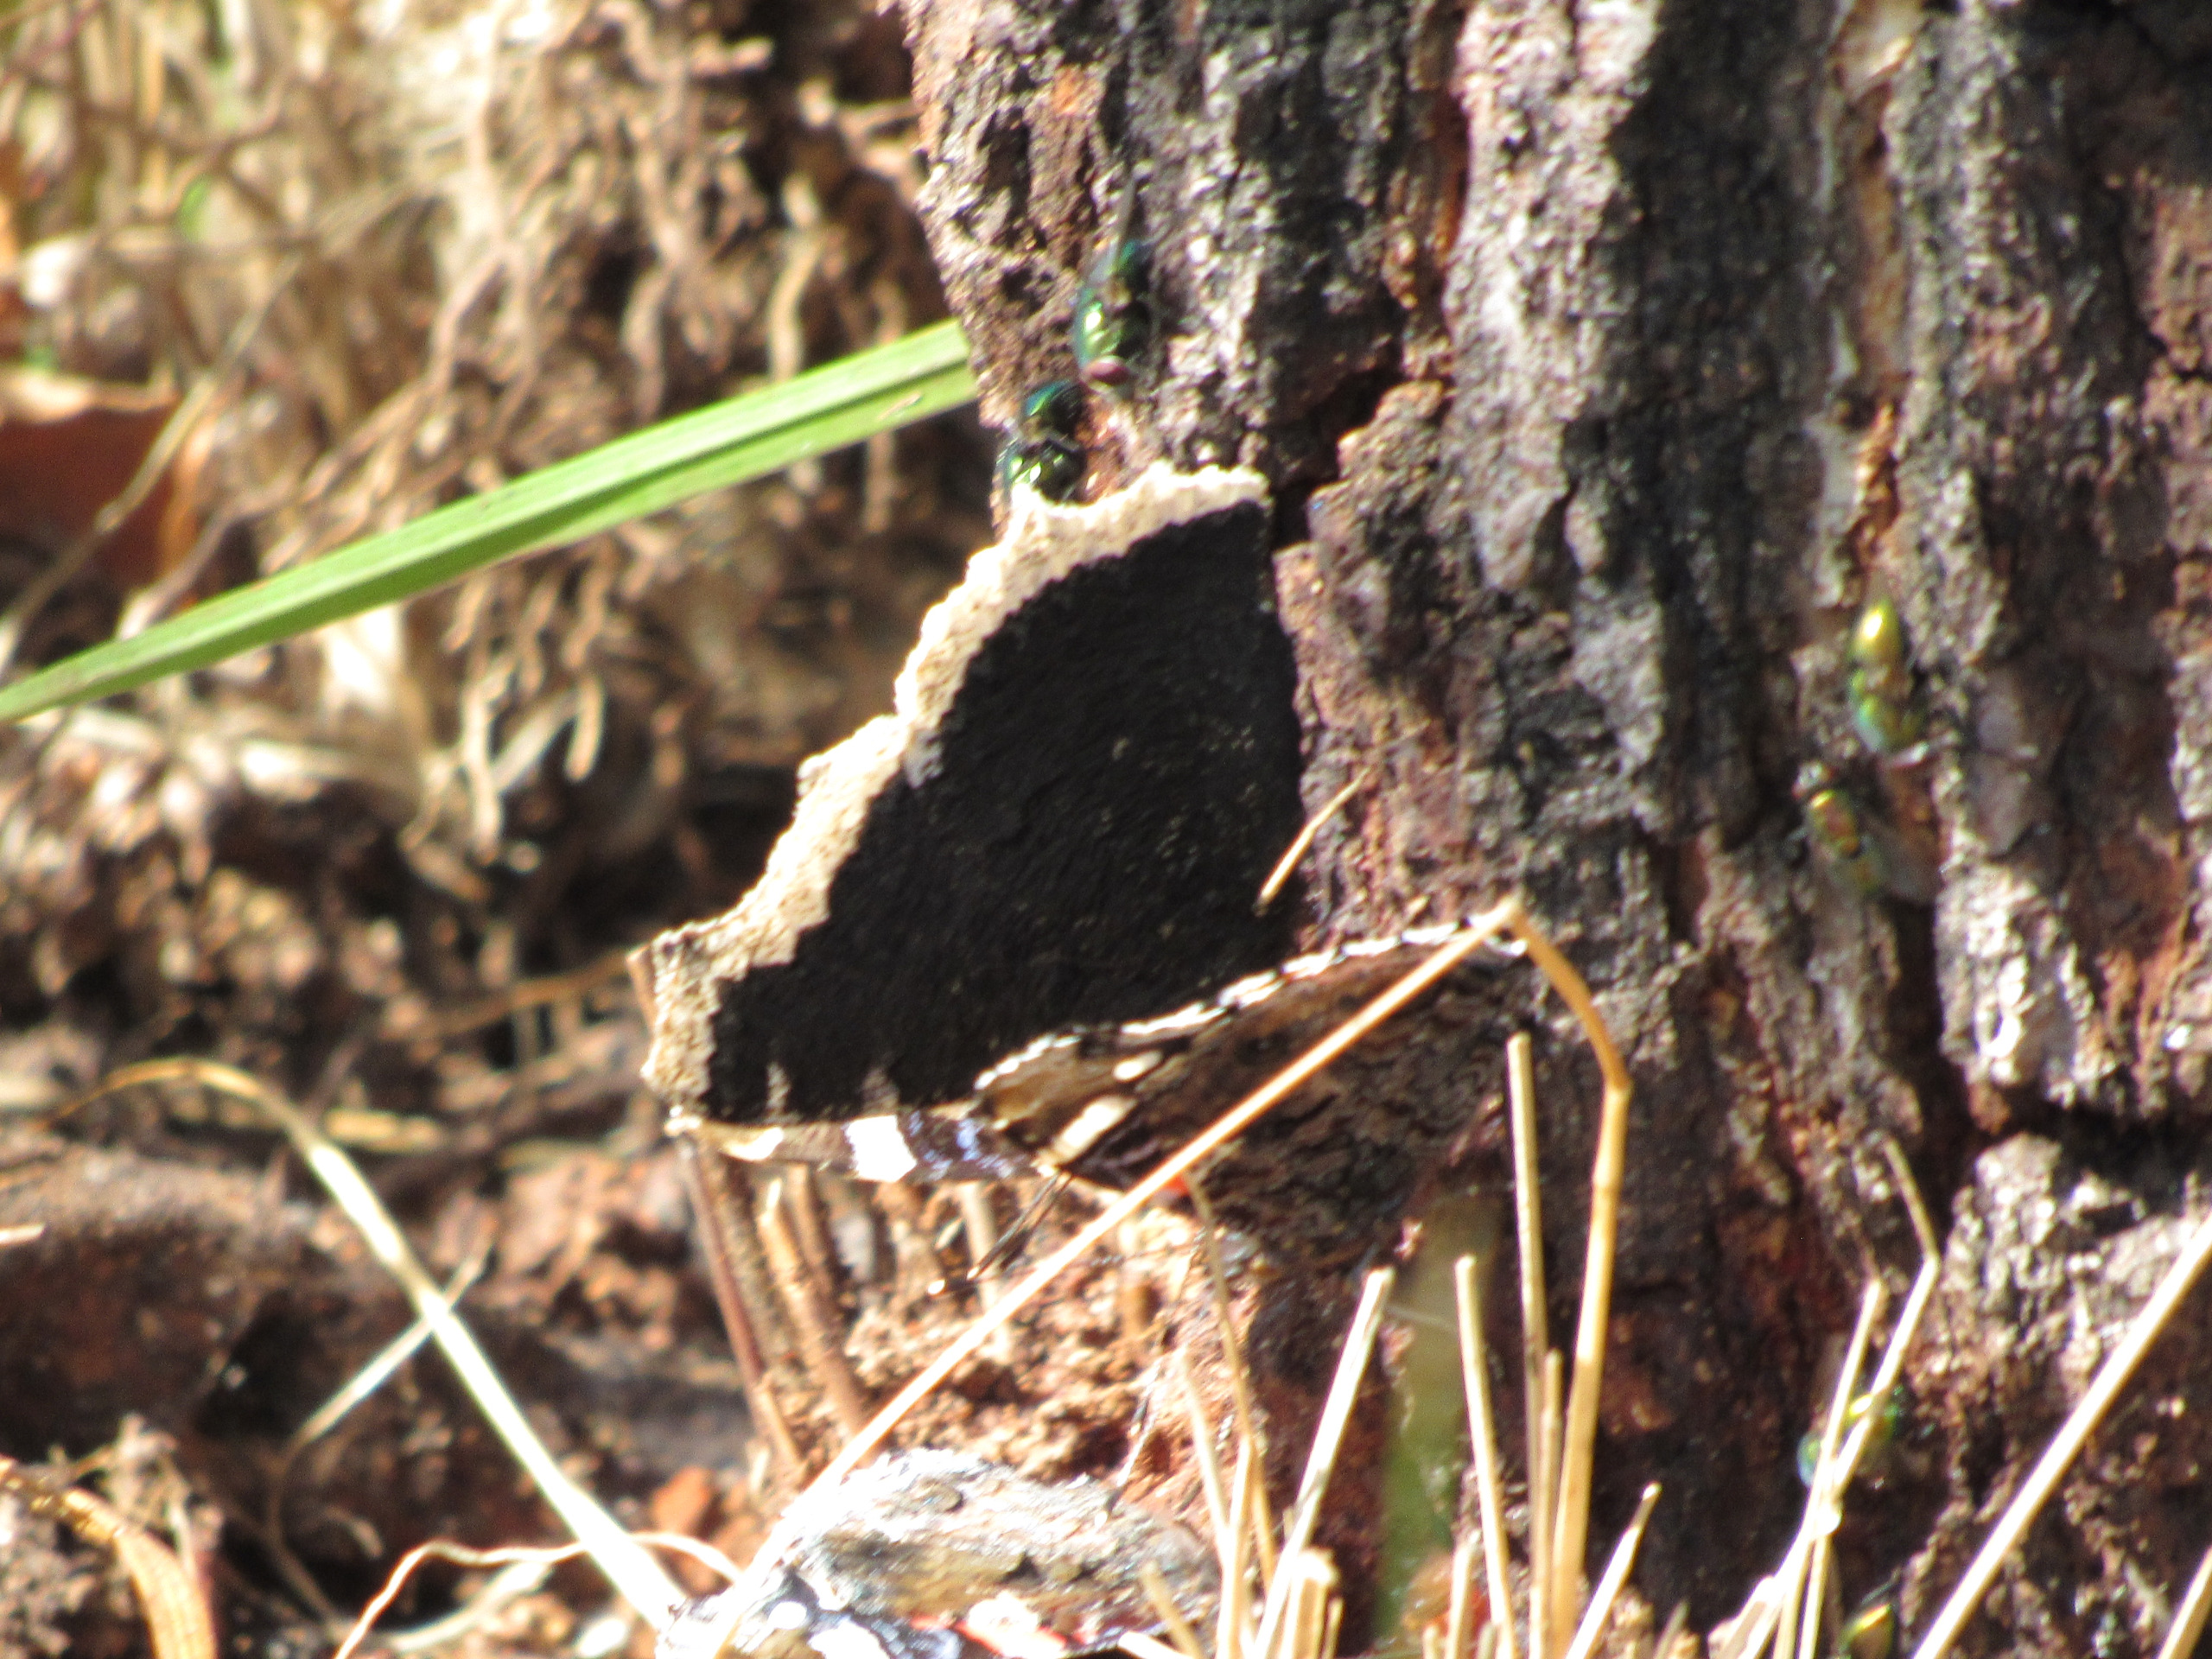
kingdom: Animalia
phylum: Arthropoda
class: Insecta
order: Lepidoptera
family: Nymphalidae
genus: Nymphalis
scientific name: Nymphalis antiopa
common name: Sørgekåbe
